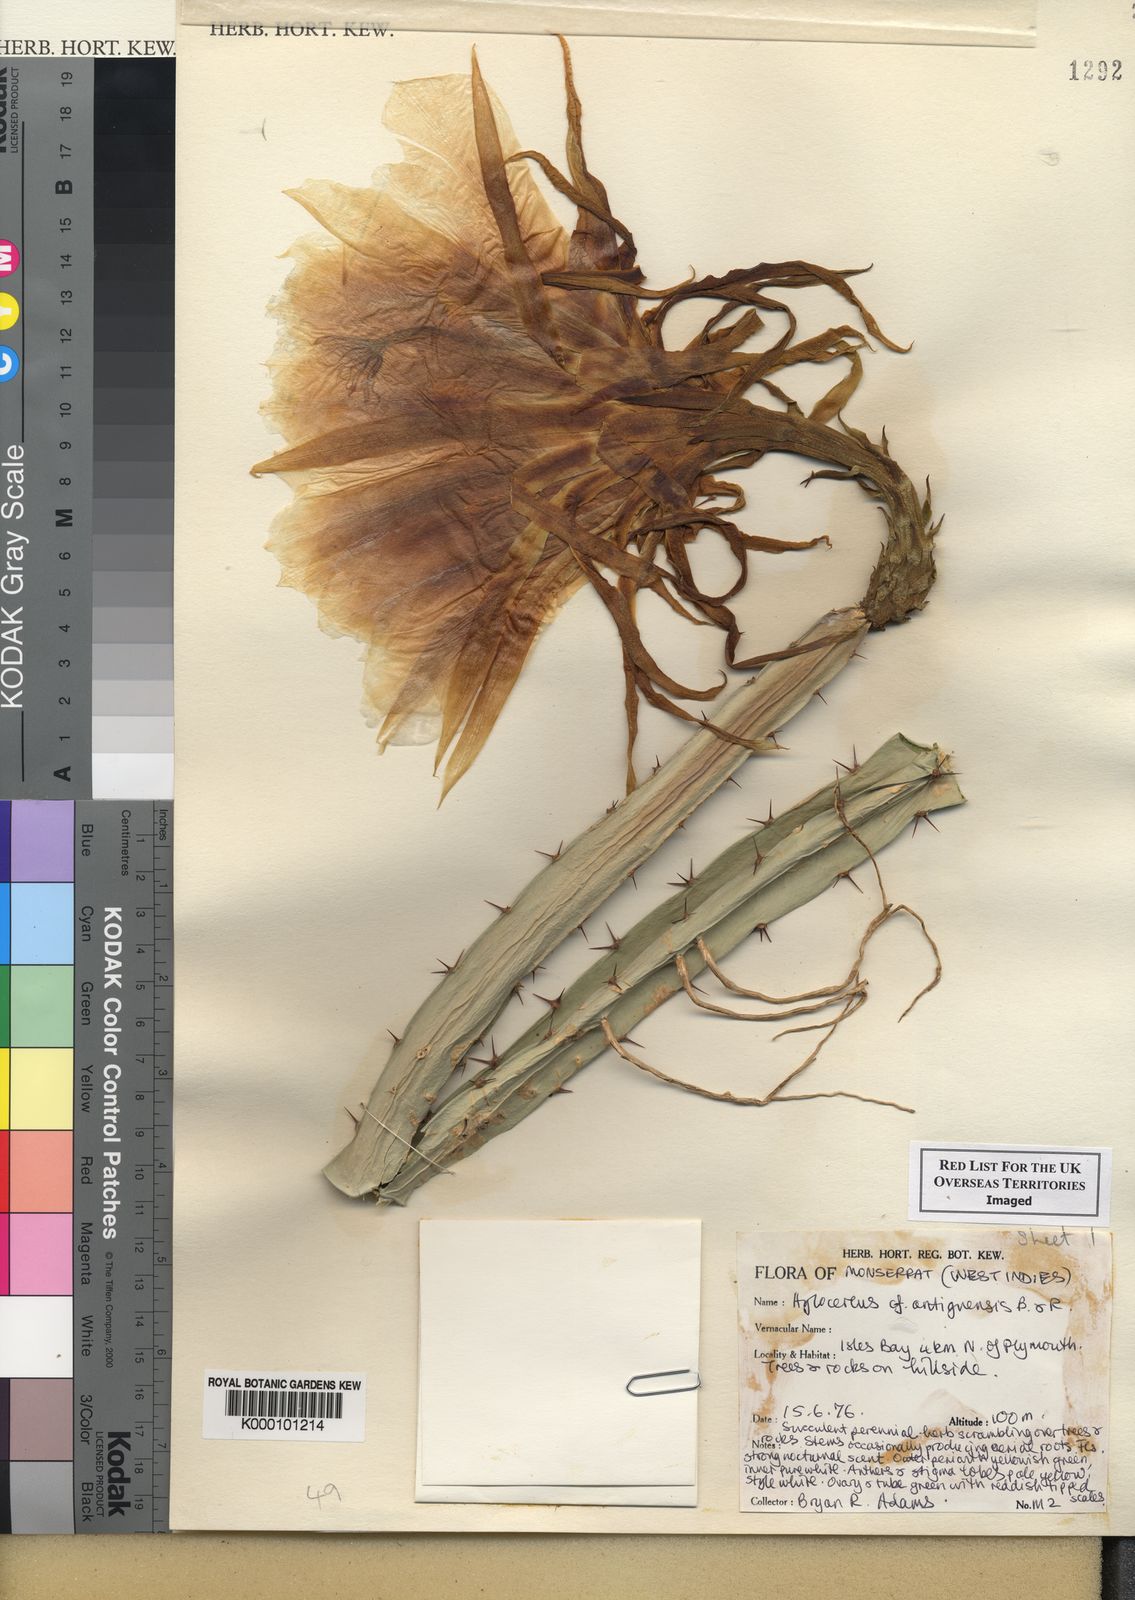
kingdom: Plantae
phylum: Tracheophyta
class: Magnoliopsida
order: Caryophyllales
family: Cactaceae
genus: Selenicereus
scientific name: Selenicereus triangularis
